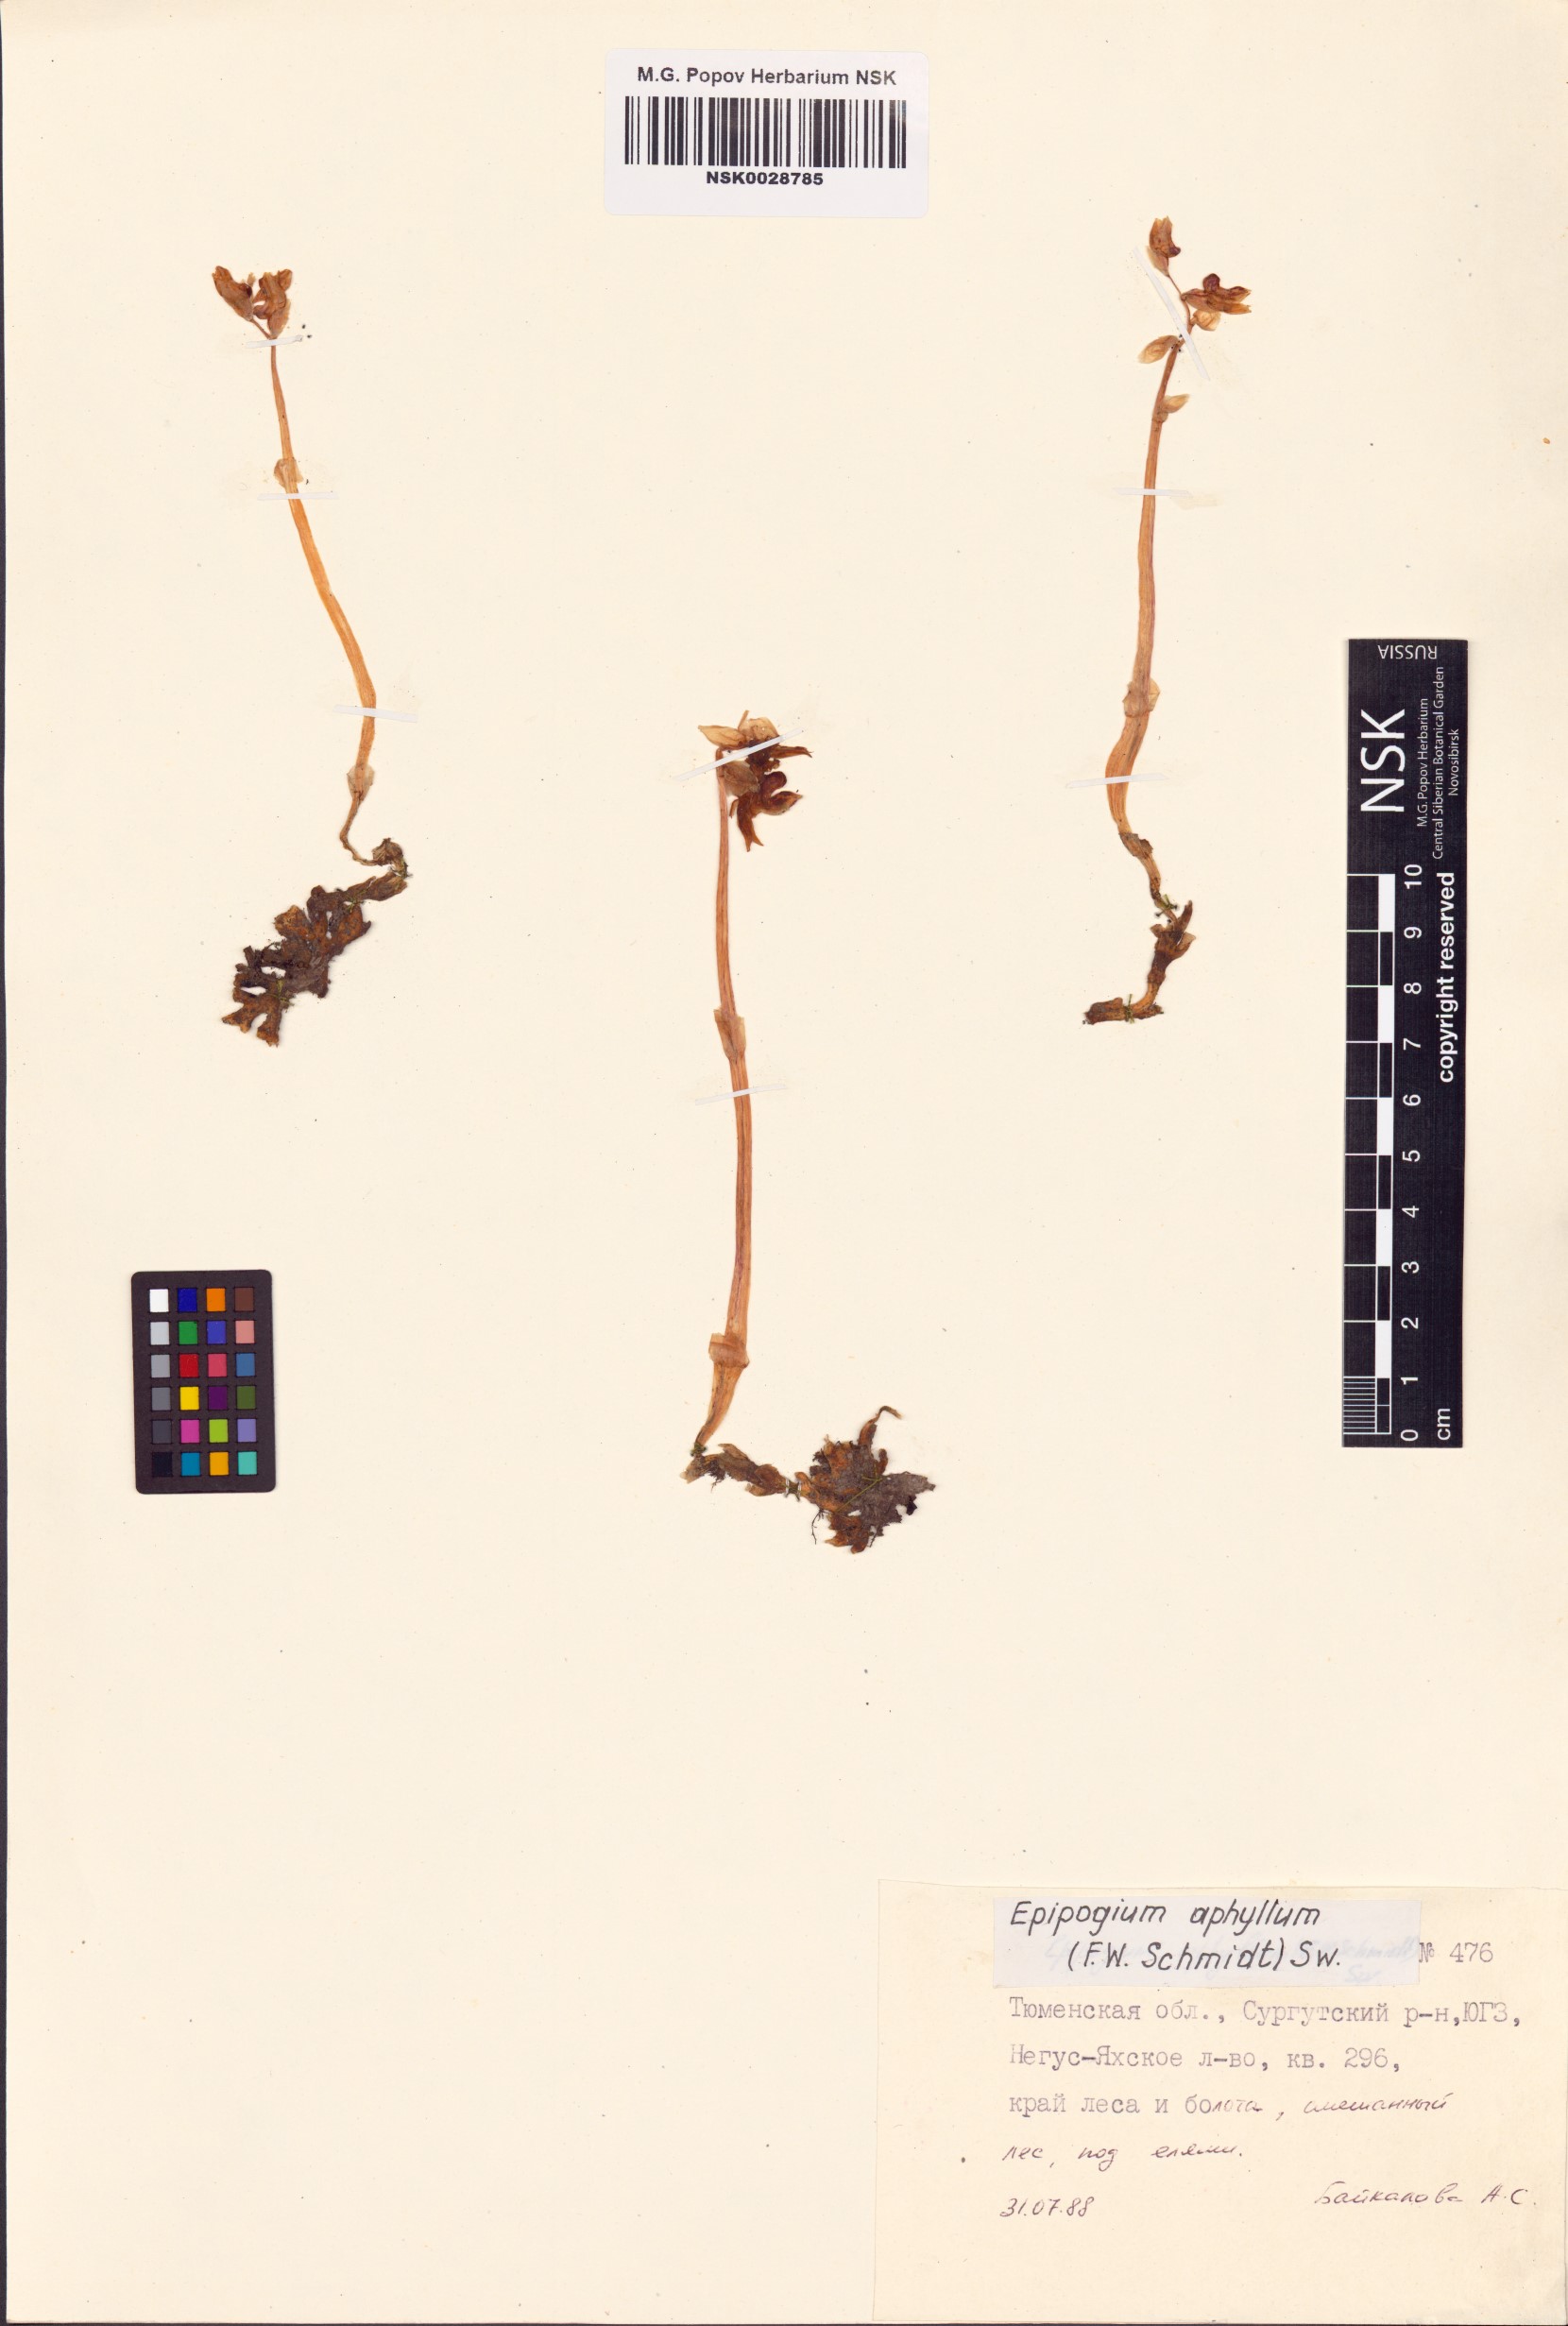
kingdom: Plantae
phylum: Tracheophyta
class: Liliopsida
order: Asparagales
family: Orchidaceae
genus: Epipogium
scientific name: Epipogium aphyllum
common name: Ghost orchid
